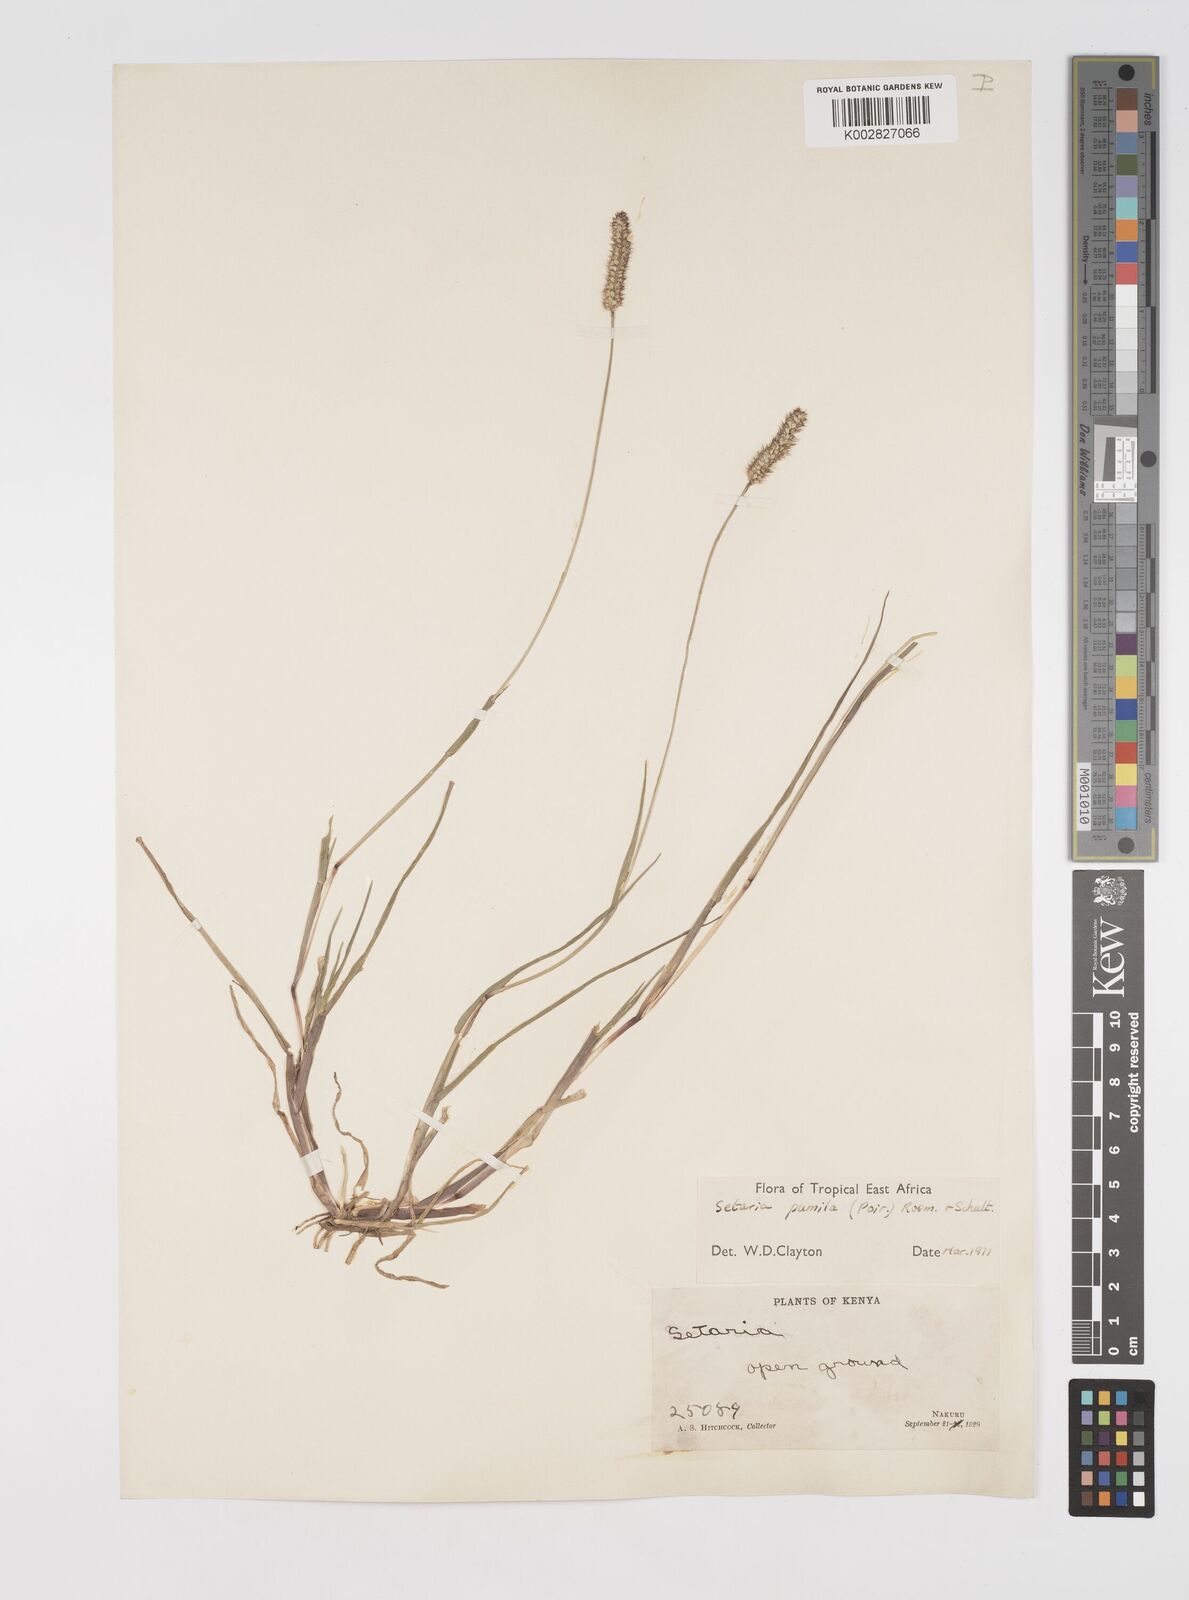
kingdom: Plantae
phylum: Tracheophyta
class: Liliopsida
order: Poales
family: Poaceae
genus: Setaria
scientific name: Setaria pumila
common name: Yellow bristle-grass
